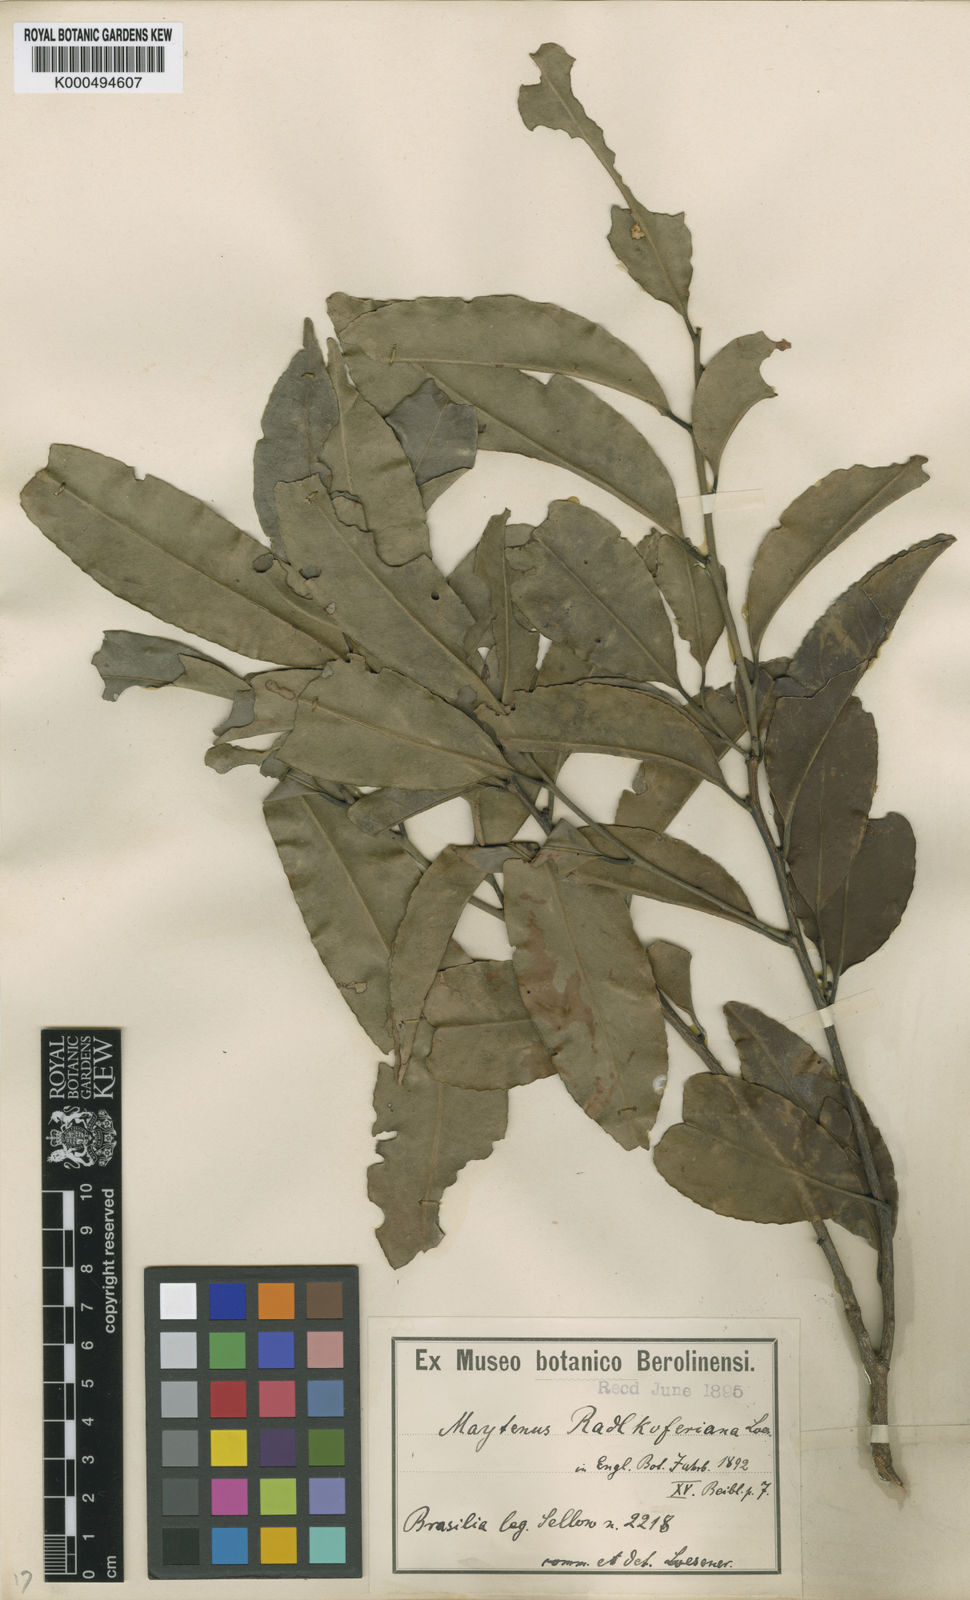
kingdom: Plantae
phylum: Tracheophyta
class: Magnoliopsida
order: Celastrales
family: Celastraceae
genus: Monteverdia
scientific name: Monteverdia radlkoferiana
